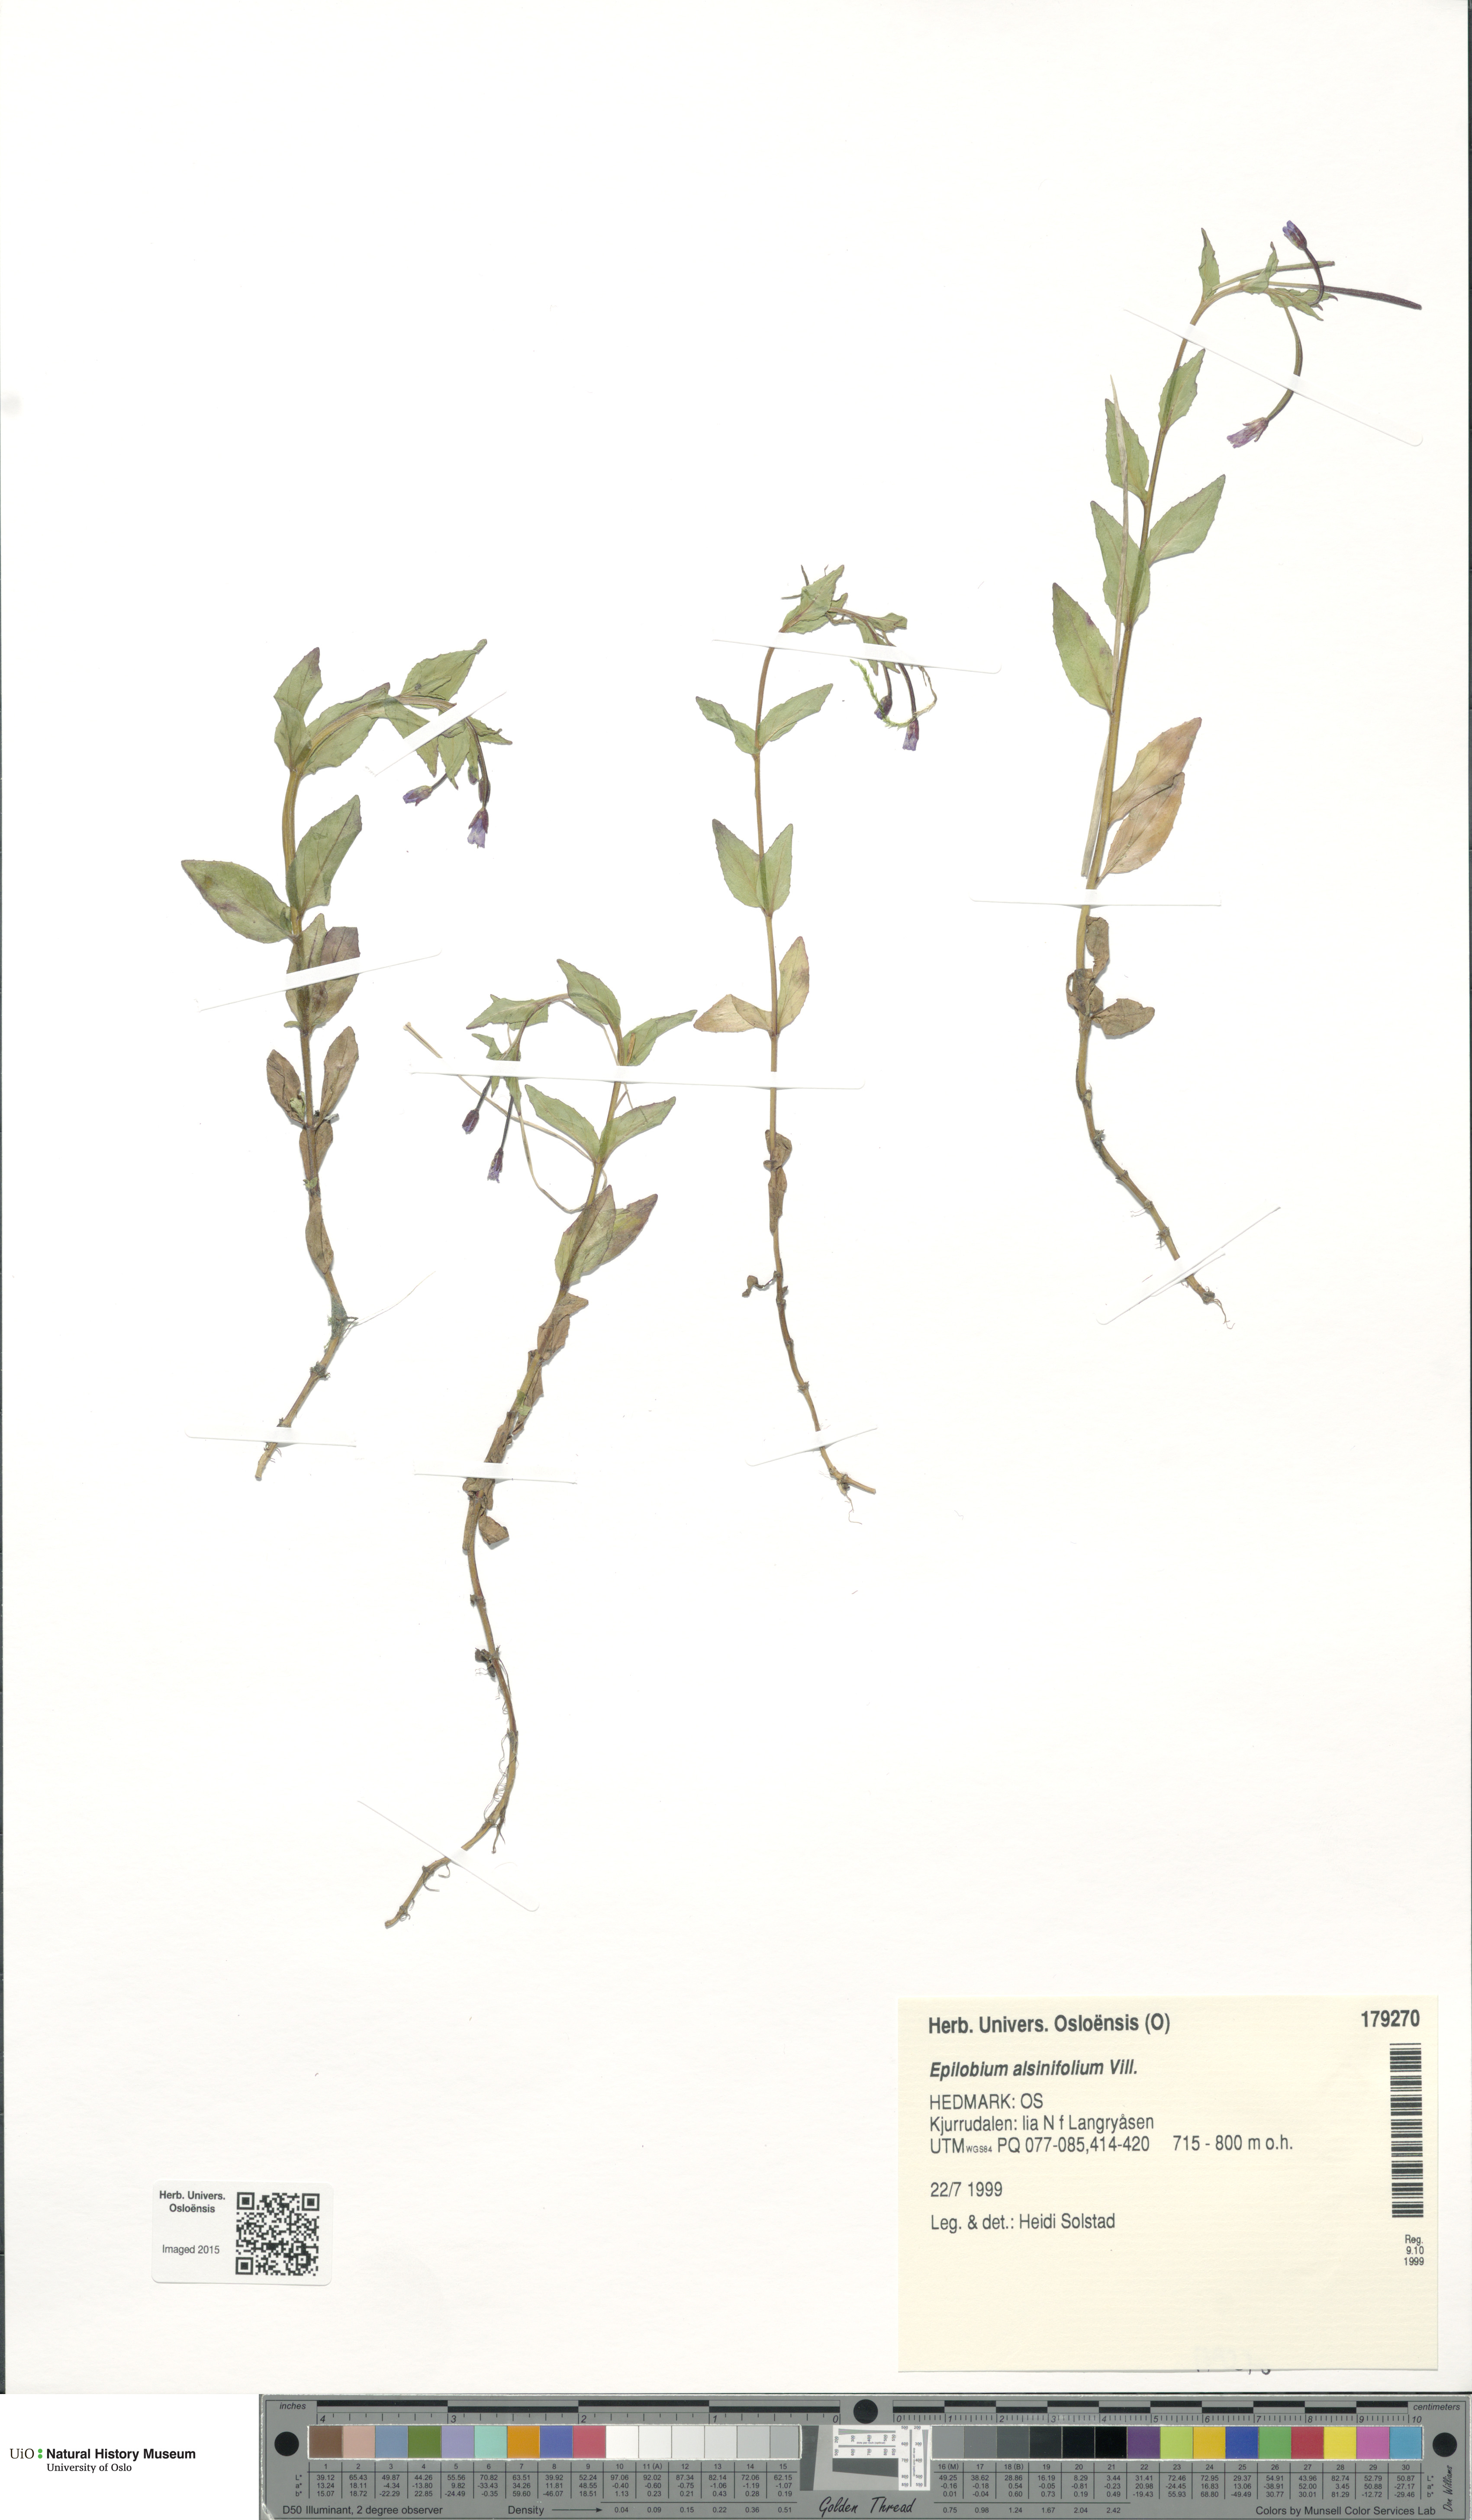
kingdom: Plantae
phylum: Tracheophyta
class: Magnoliopsida
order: Myrtales
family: Onagraceae
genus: Epilobium
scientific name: Epilobium alsinifolium
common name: Chickweed willowherb
